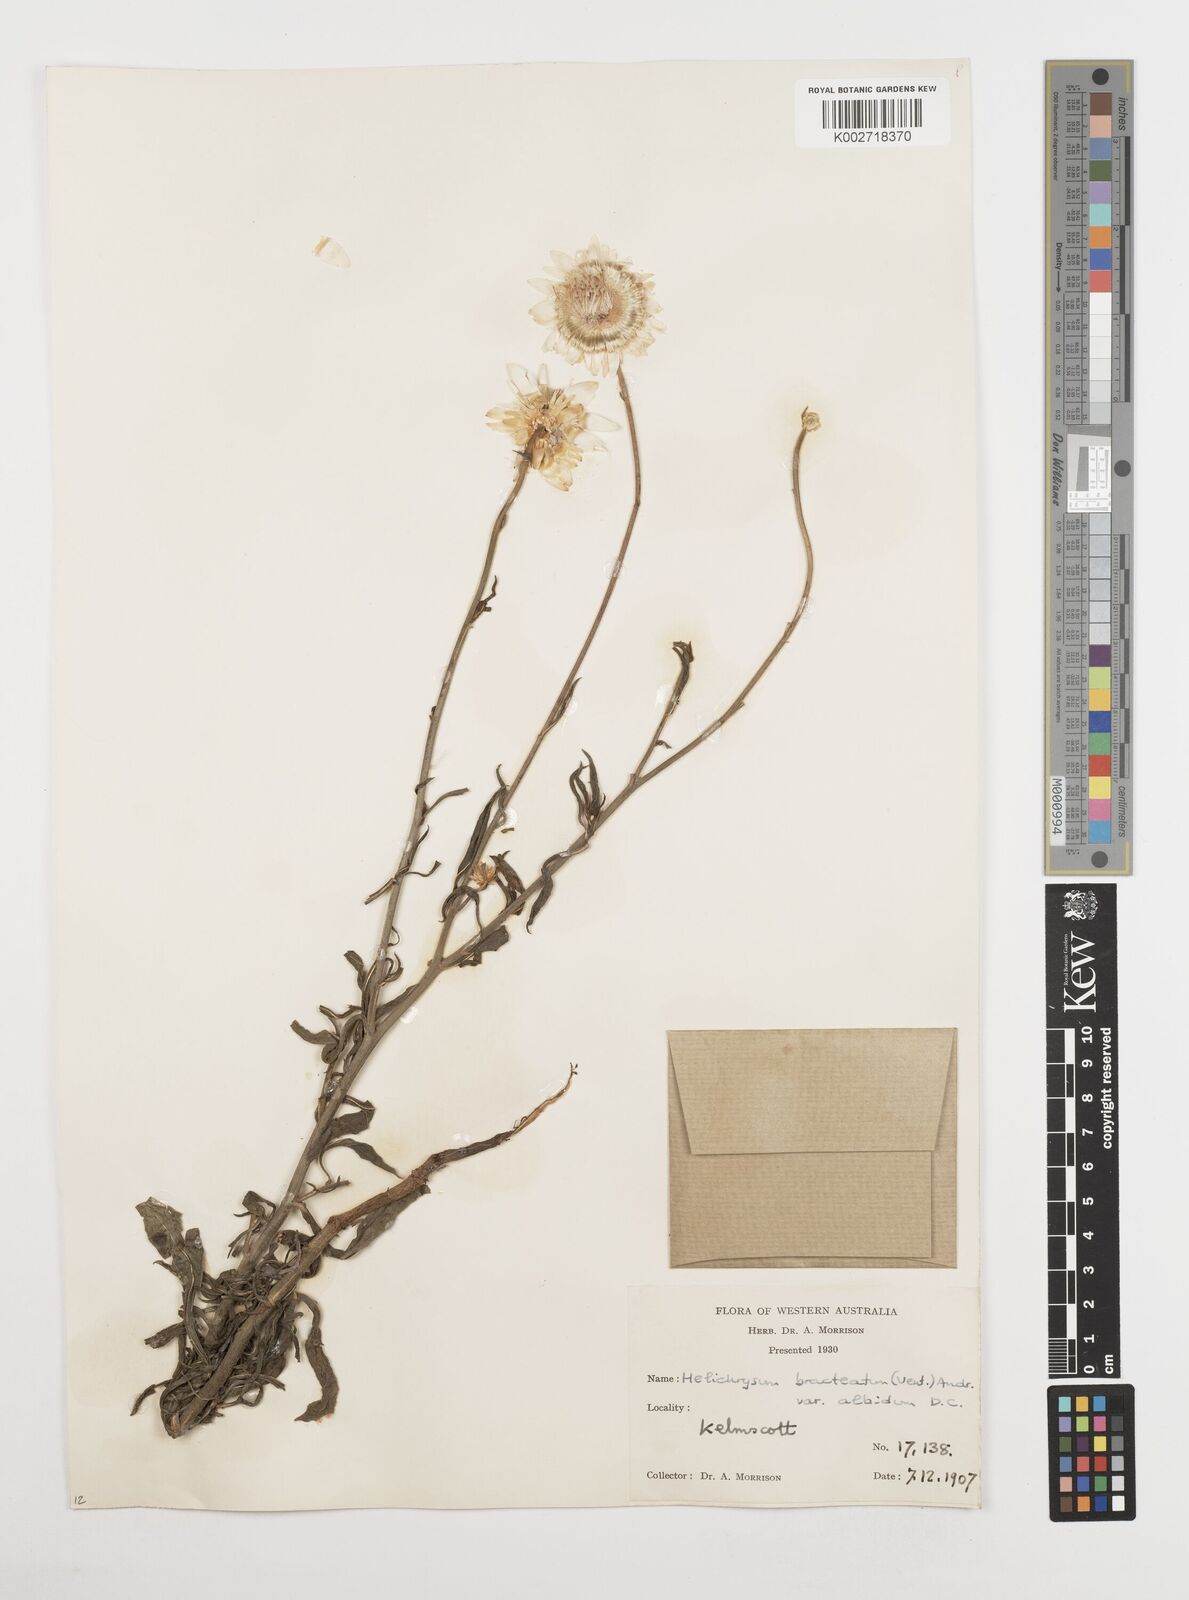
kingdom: Plantae
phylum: Tracheophyta
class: Magnoliopsida
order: Asterales
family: Asteraceae
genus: Xerochrysum
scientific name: Xerochrysum bracteatum
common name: Bracted strawflower
